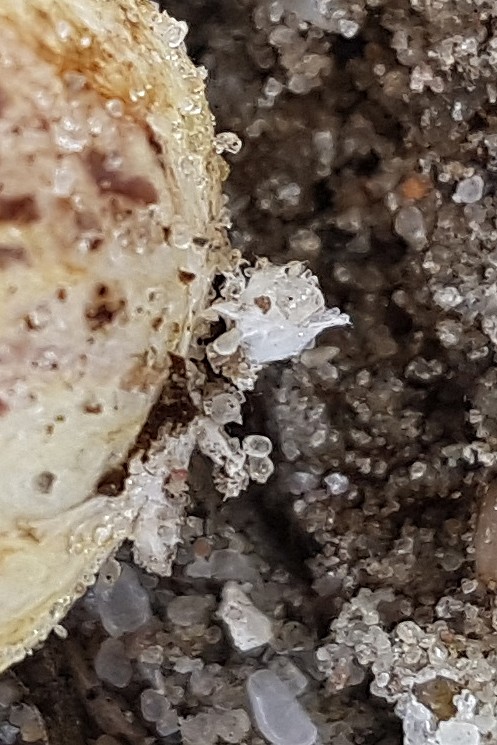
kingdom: Fungi
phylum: Basidiomycota
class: Agaricomycetes
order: Boletales
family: Rhizopogonaceae
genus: Rhizopogon
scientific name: Rhizopogon roseolus
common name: rødlig skægtrøffel
